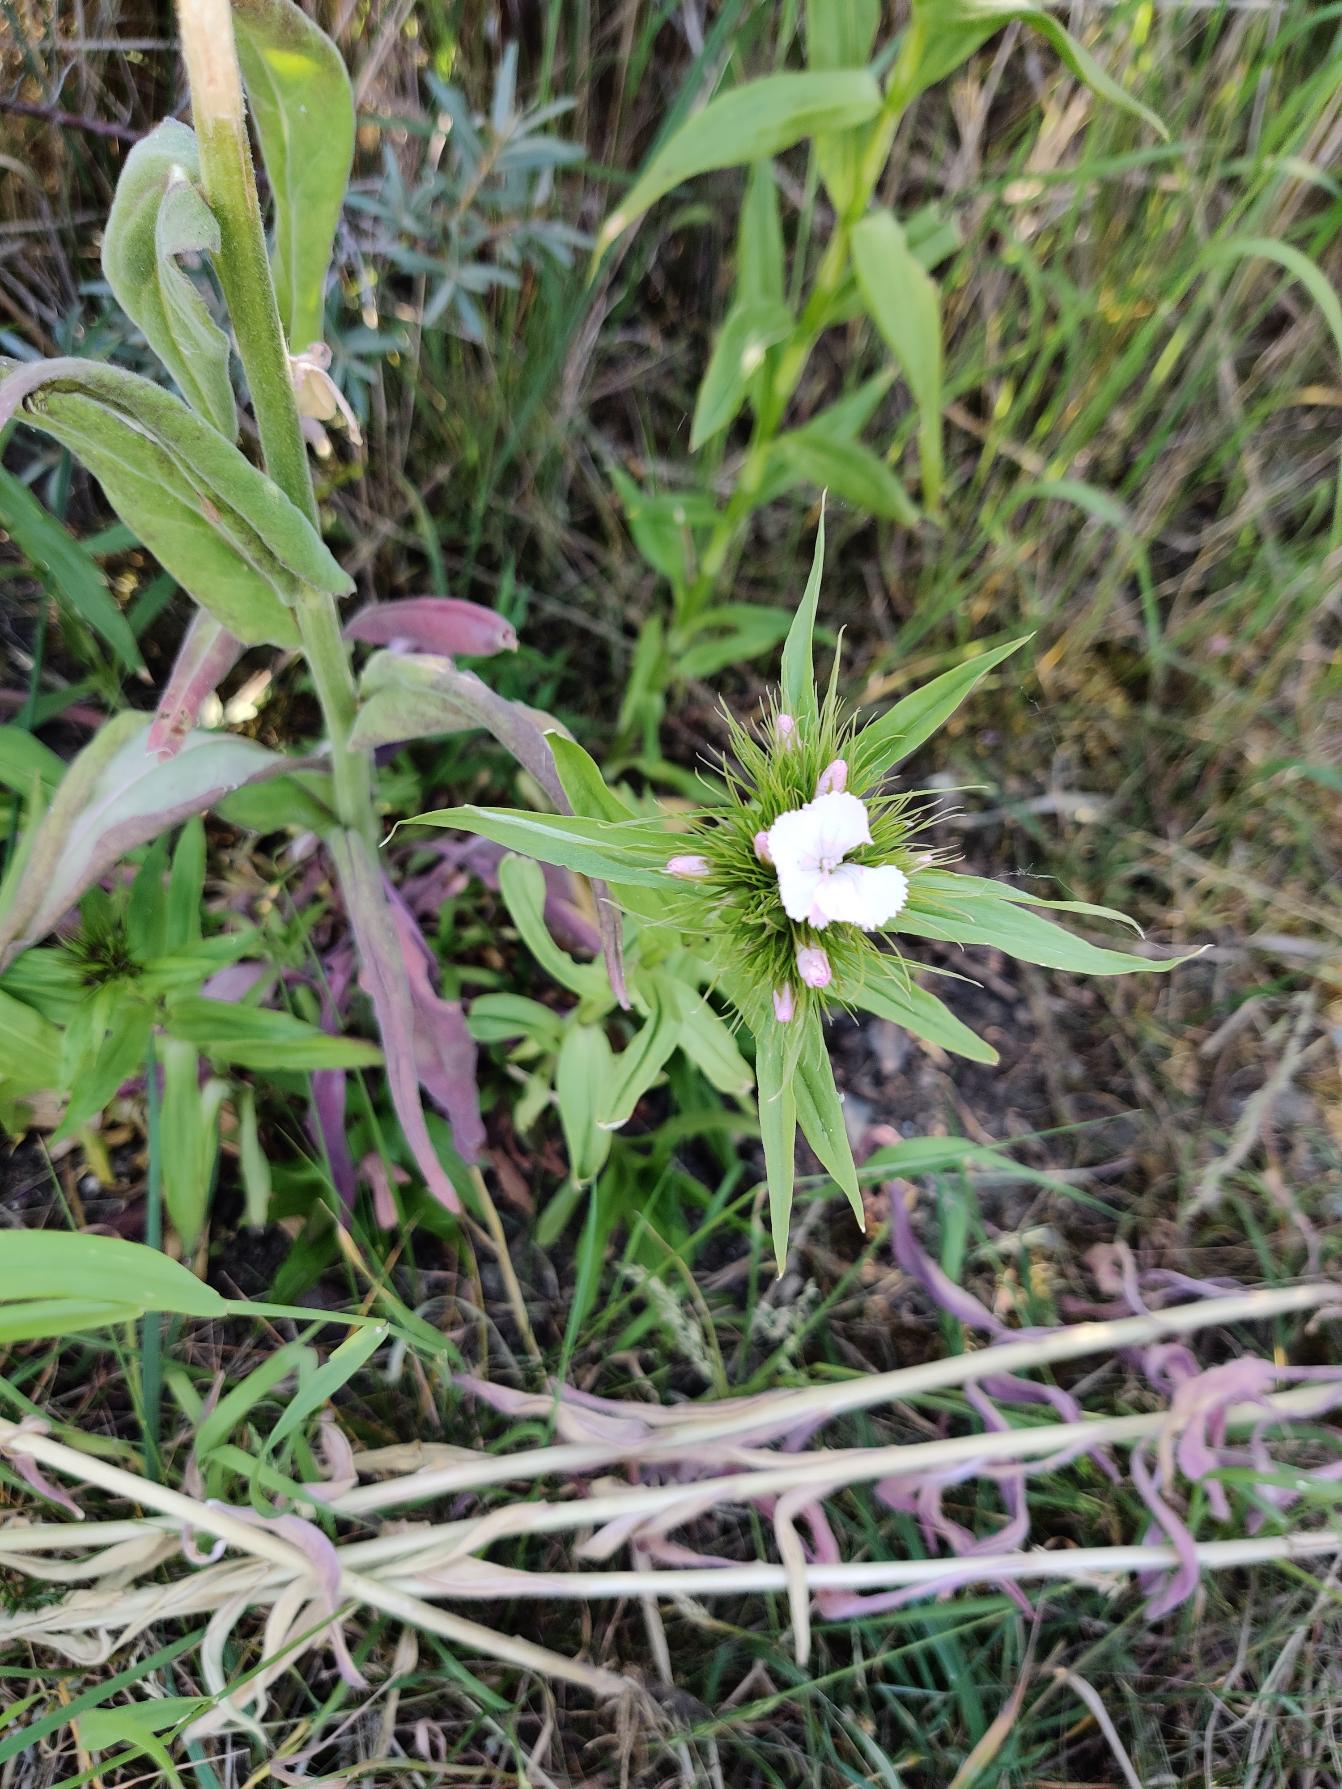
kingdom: Plantae
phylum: Tracheophyta
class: Magnoliopsida
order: Caryophyllales
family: Caryophyllaceae
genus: Dianthus
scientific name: Dianthus barbatus
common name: Studenter-nellike
